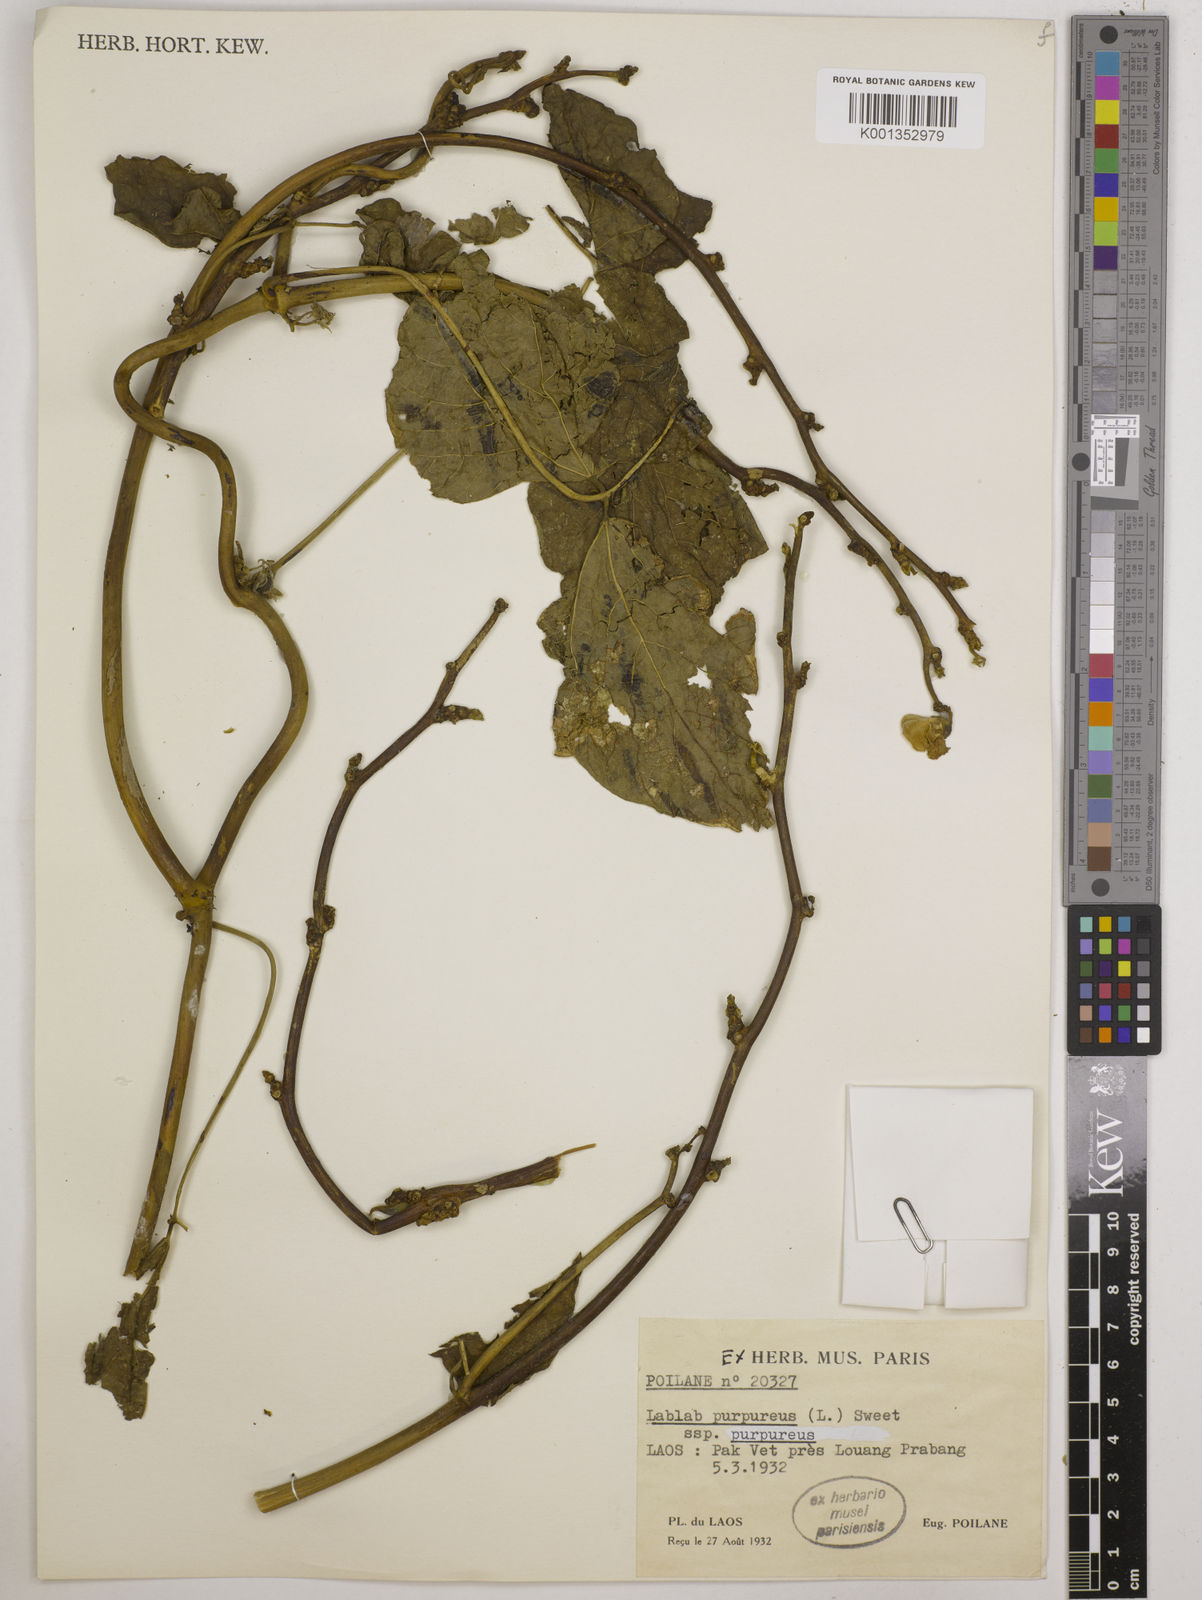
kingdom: Plantae
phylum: Tracheophyta
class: Magnoliopsida
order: Fabales
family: Fabaceae
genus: Lablab
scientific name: Lablab purpureus
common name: Lablab-bean
